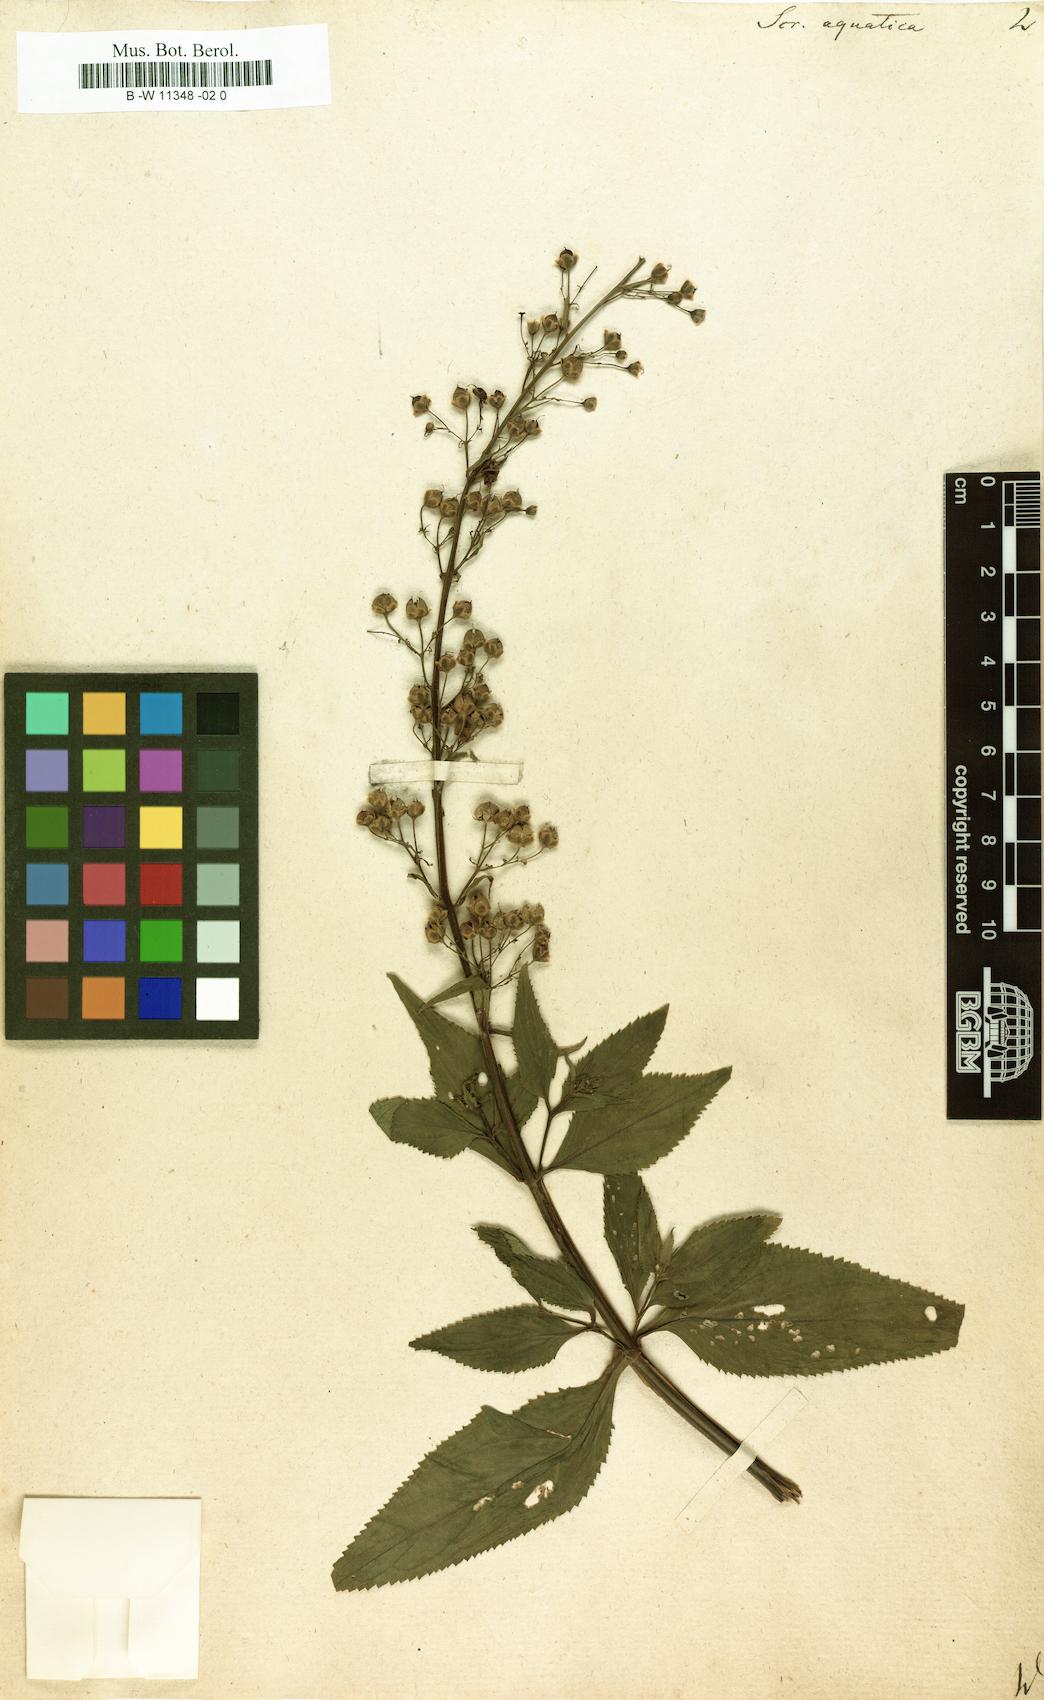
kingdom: Plantae
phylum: Tracheophyta
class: Magnoliopsida
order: Lamiales
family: Scrophulariaceae
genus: Scrophularia
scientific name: Scrophularia
